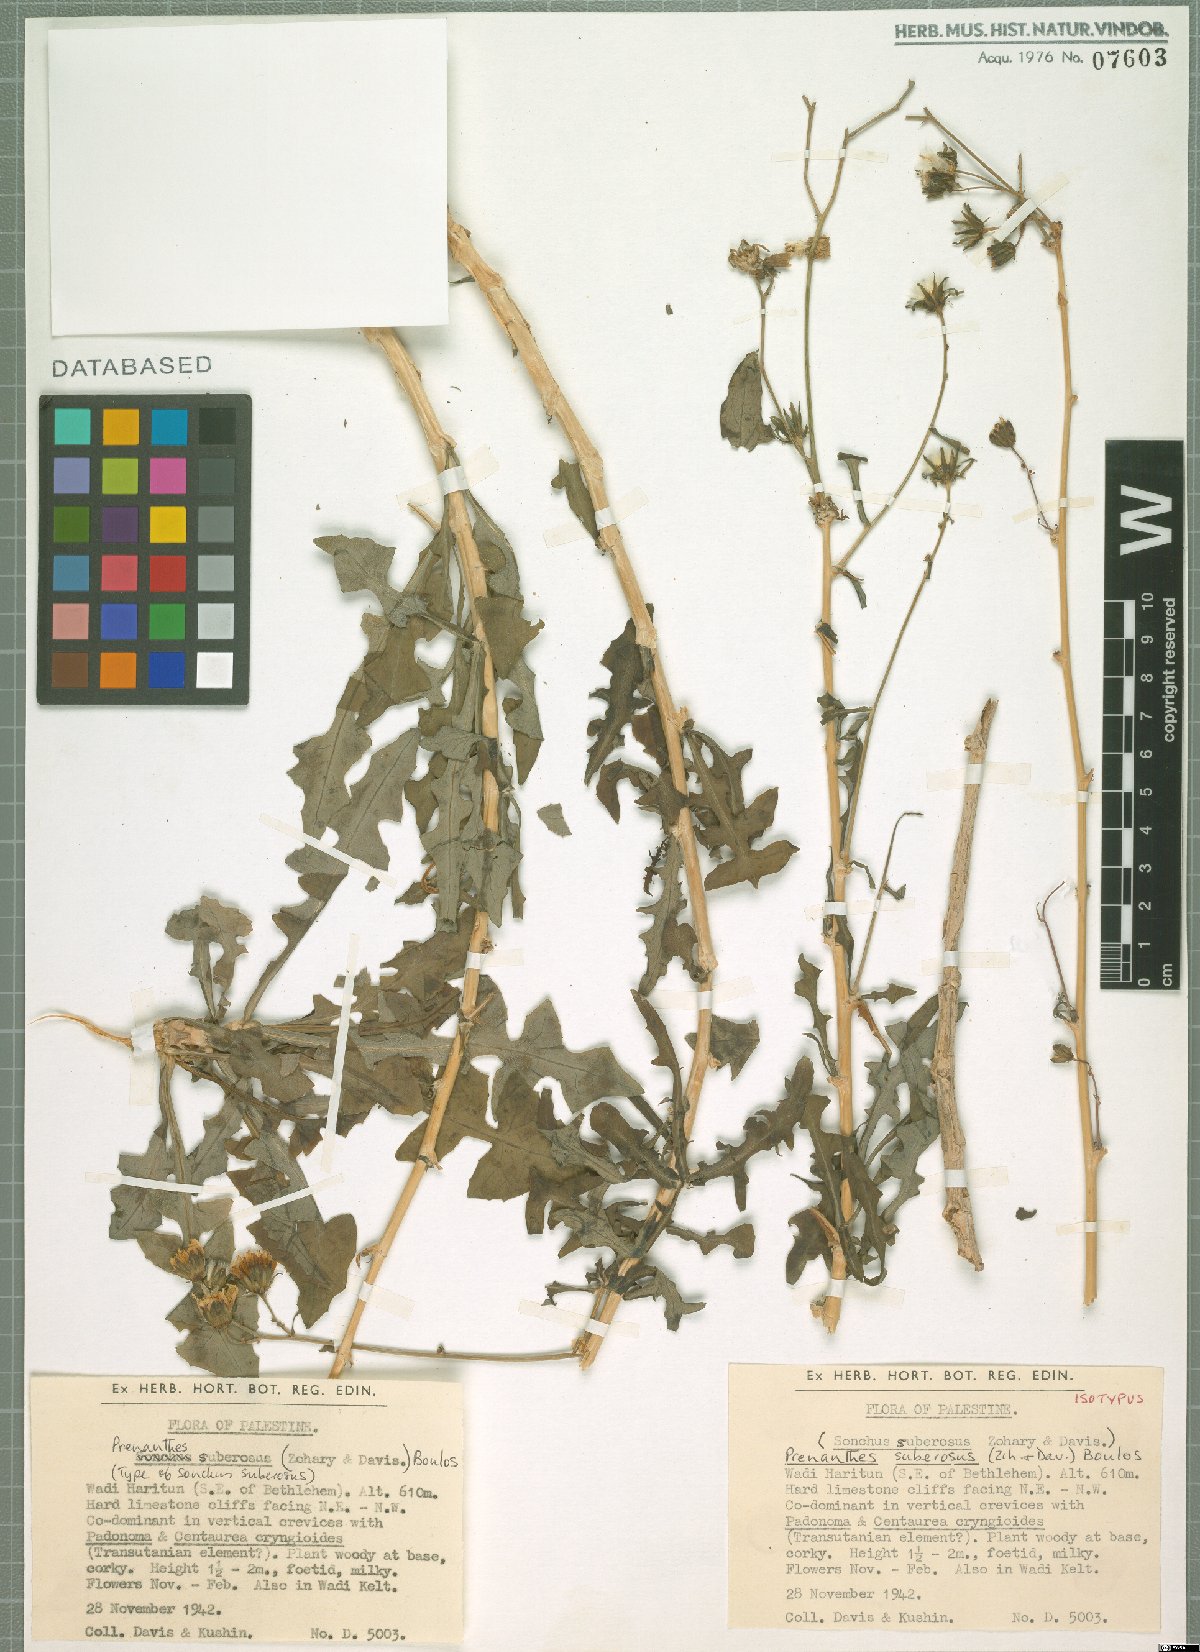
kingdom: Plantae
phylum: Tracheophyta
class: Magnoliopsida
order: Asterales
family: Asteraceae
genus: Sonchus
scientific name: Sonchus suberosus
